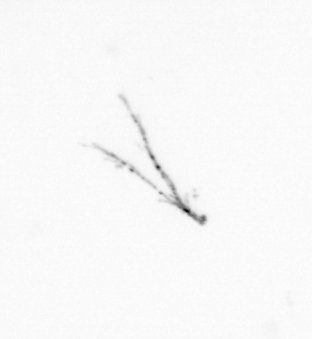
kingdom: Chromista
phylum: Myzozoa
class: Dinophyceae
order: Gonyaulacales
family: Ceratiaceae
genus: Ceratium
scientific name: Ceratium
